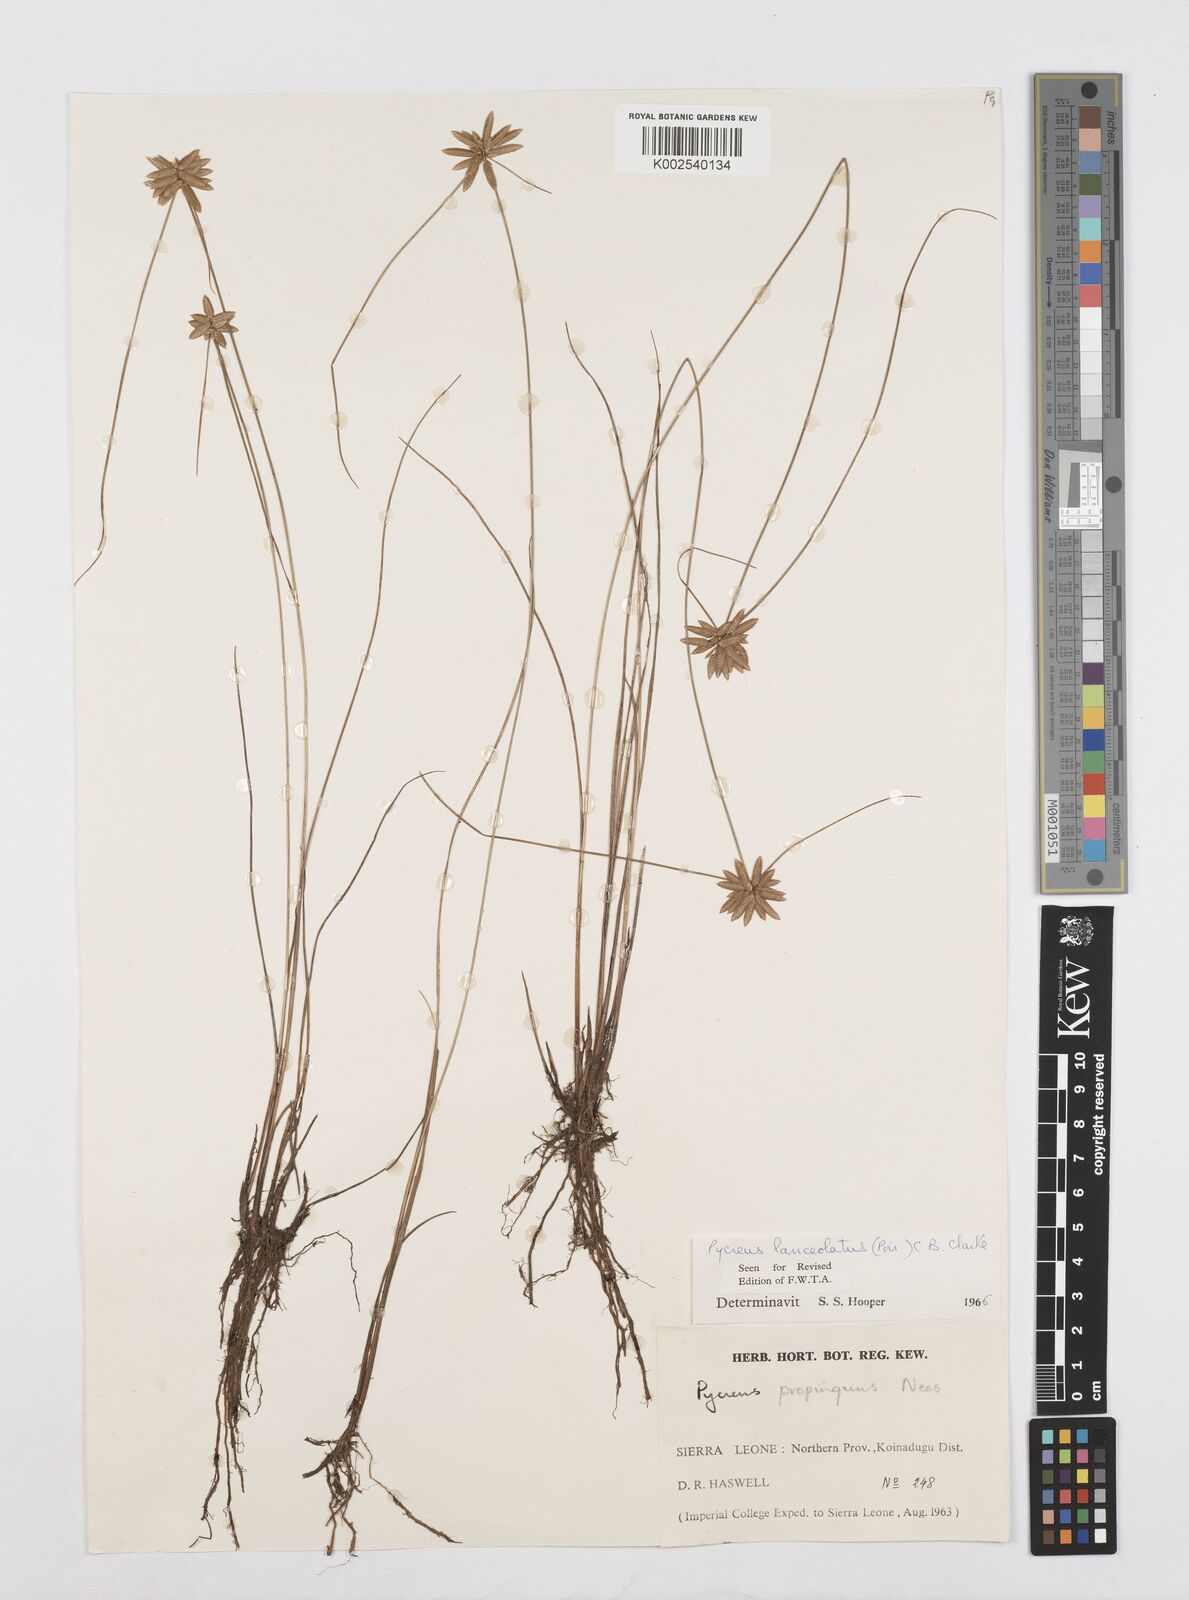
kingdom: Plantae
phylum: Tracheophyta
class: Liliopsida
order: Poales
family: Cyperaceae
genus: Cyperus
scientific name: Cyperus
